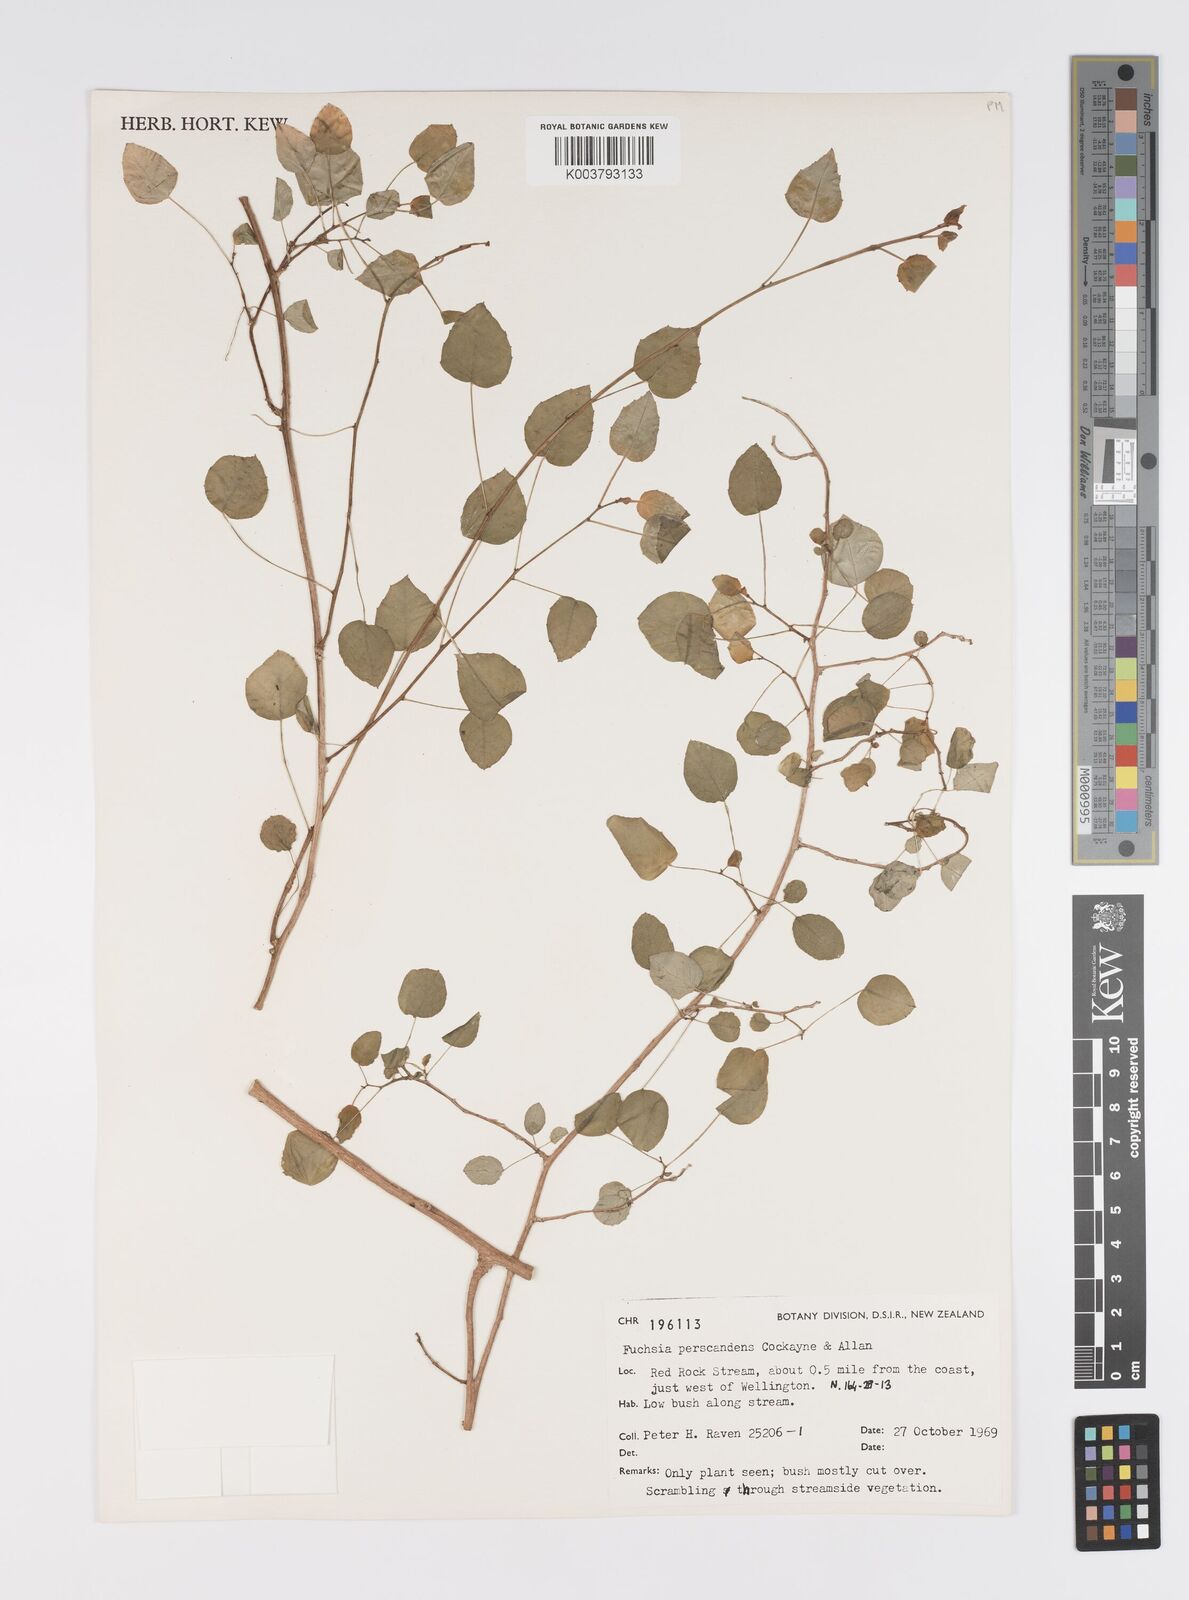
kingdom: Plantae
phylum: Tracheophyta
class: Magnoliopsida
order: Myrtales
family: Onagraceae
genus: Fuchsia
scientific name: Fuchsia perscandens
